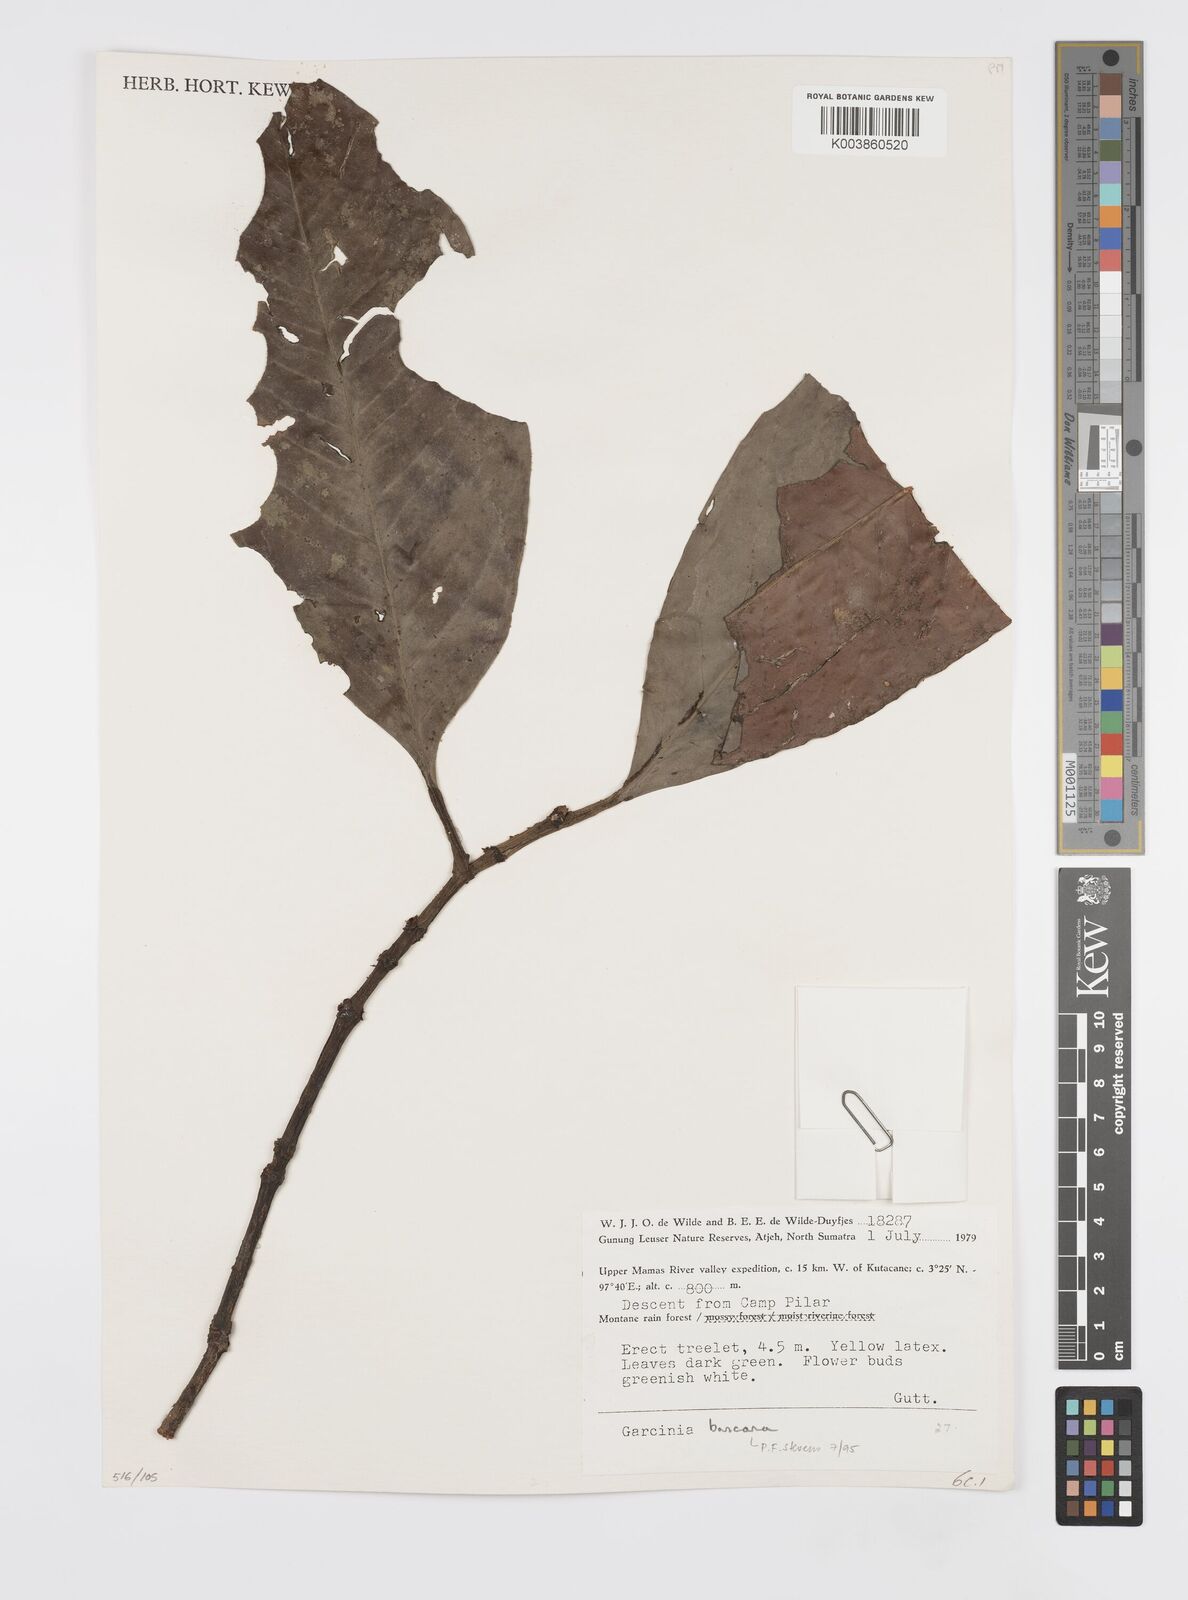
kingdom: Plantae
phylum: Tracheophyta
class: Magnoliopsida
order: Malpighiales
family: Clusiaceae
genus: Garcinia
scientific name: Garcinia bancana
